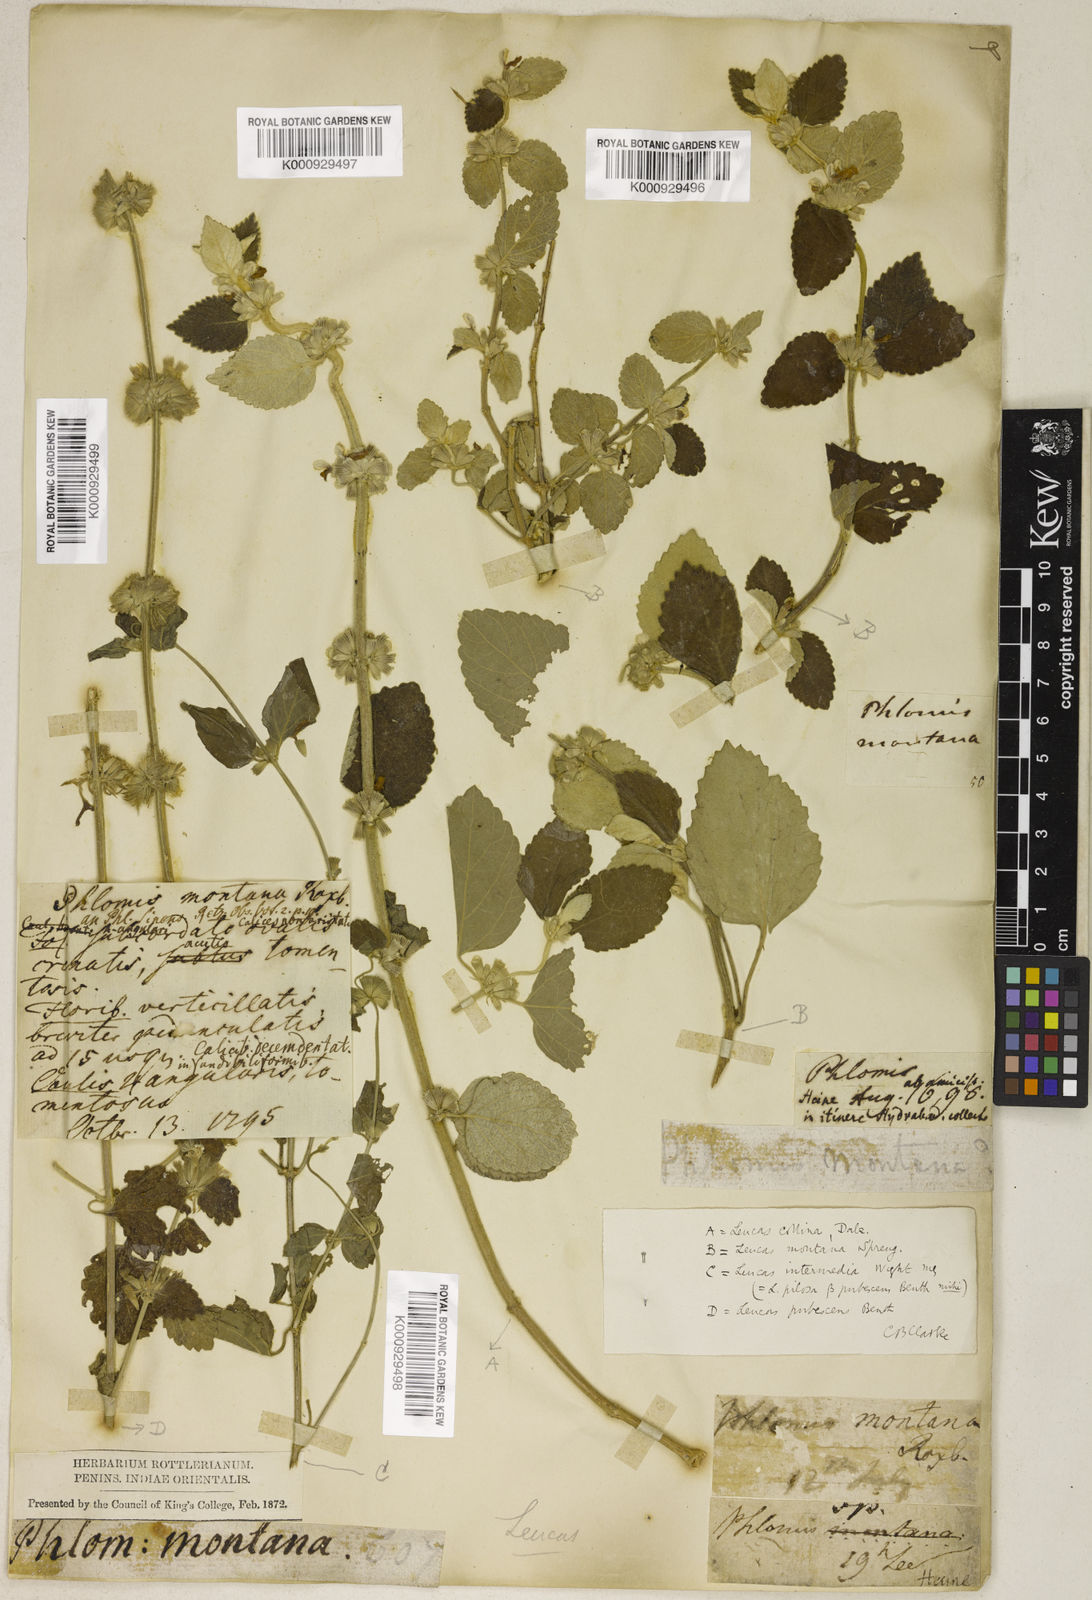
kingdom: Plantae
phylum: Tracheophyta
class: Magnoliopsida
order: Lamiales
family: Lamiaceae
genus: Leucas
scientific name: Leucas montana
